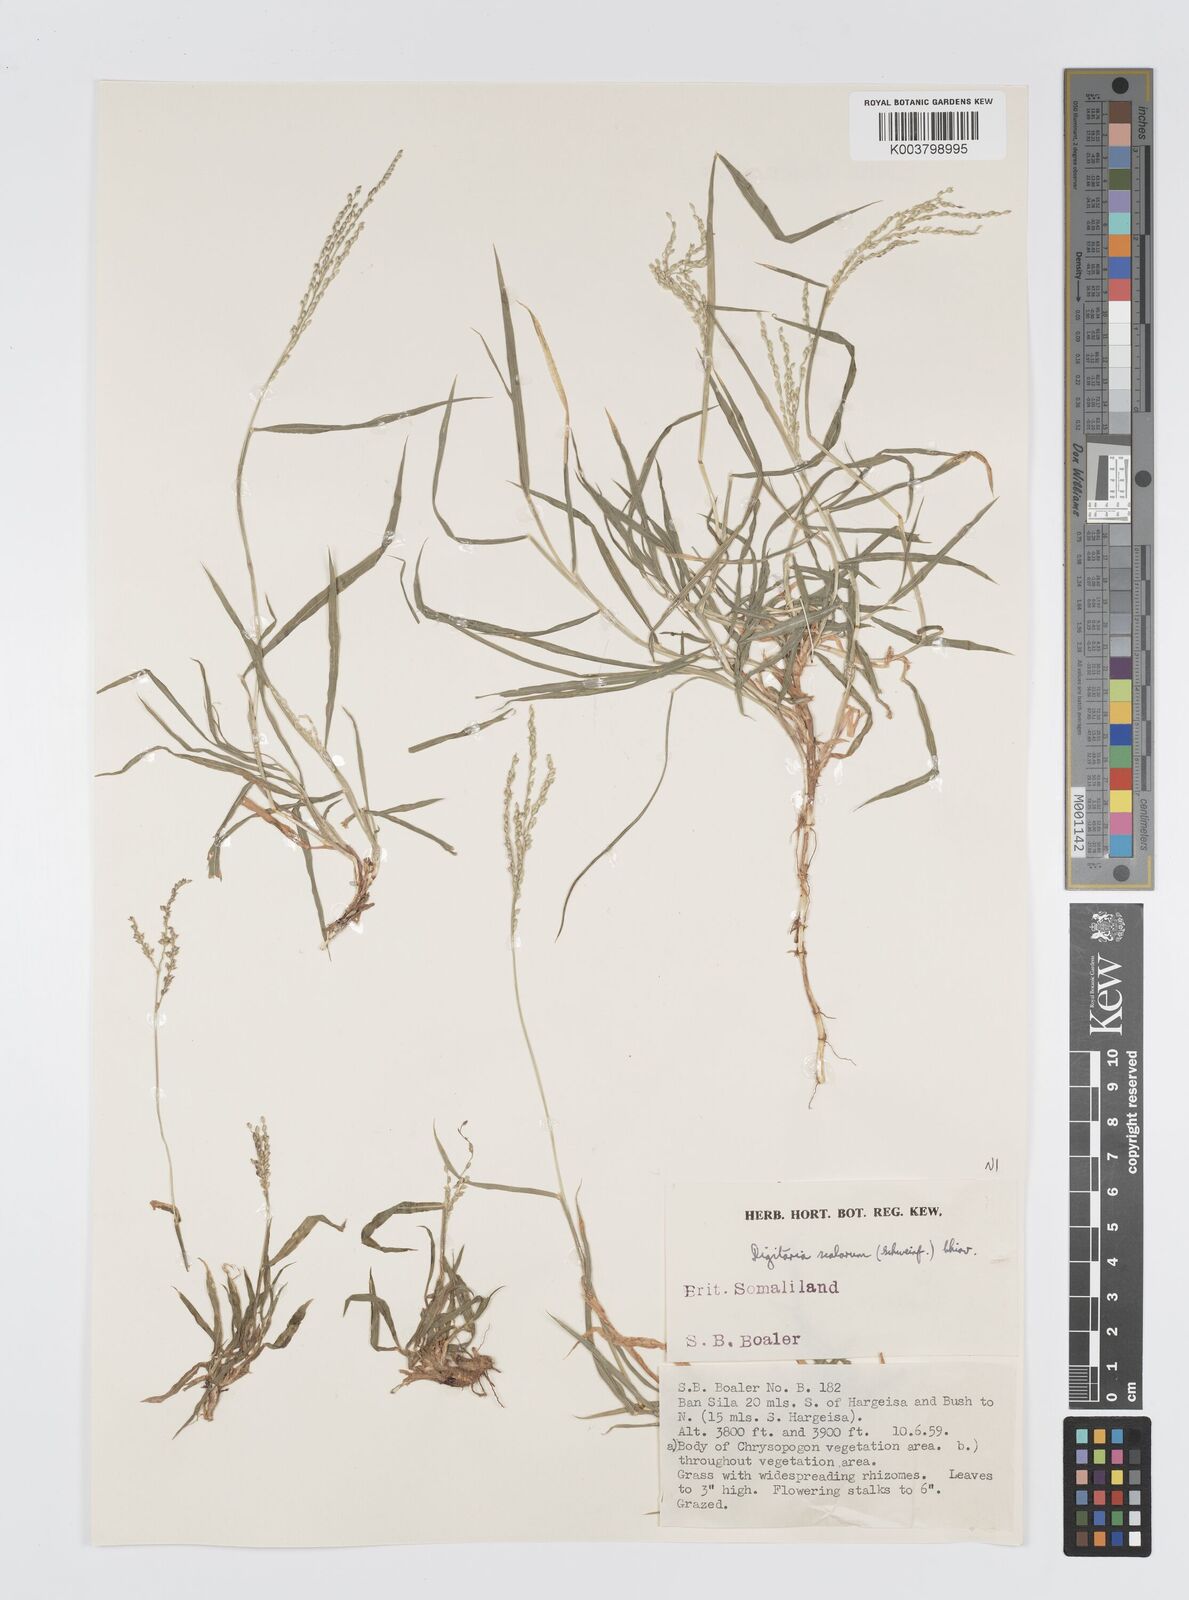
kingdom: Plantae
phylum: Tracheophyta
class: Liliopsida
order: Poales
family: Poaceae
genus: Digitaria
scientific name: Digitaria abyssinica
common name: African couchgrass
